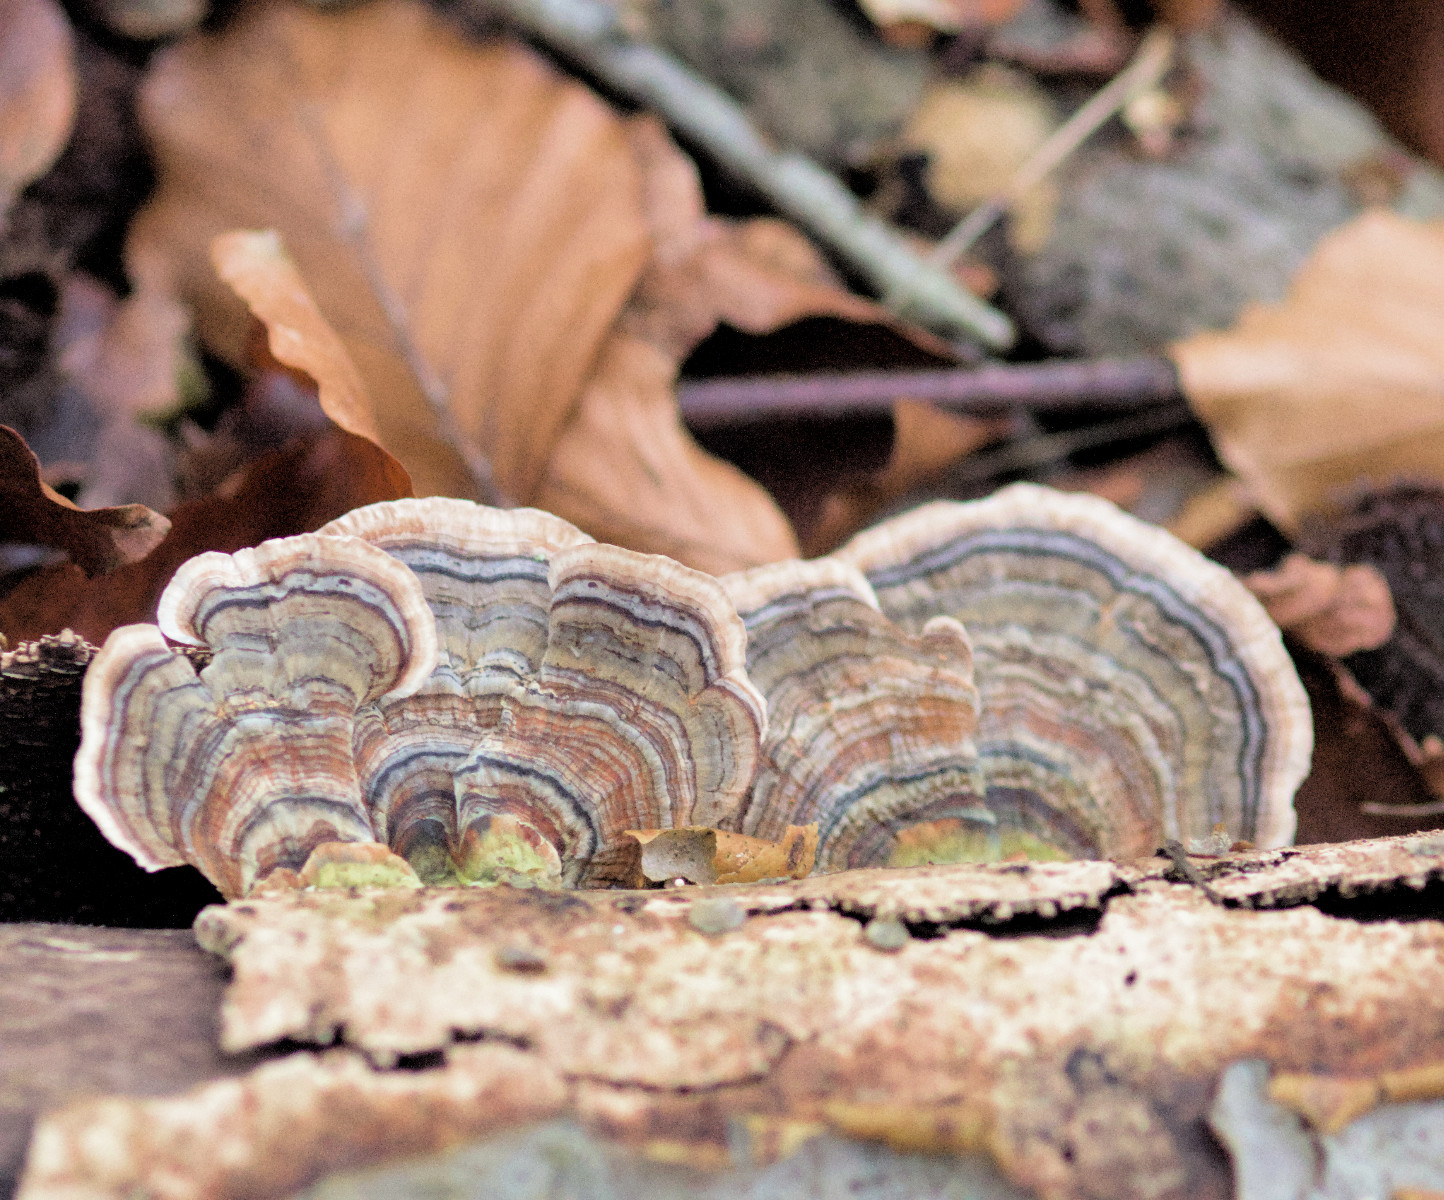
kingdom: Fungi
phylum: Basidiomycota
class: Agaricomycetes
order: Polyporales
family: Polyporaceae
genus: Trametes
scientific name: Trametes versicolor
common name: broget læderporesvamp
